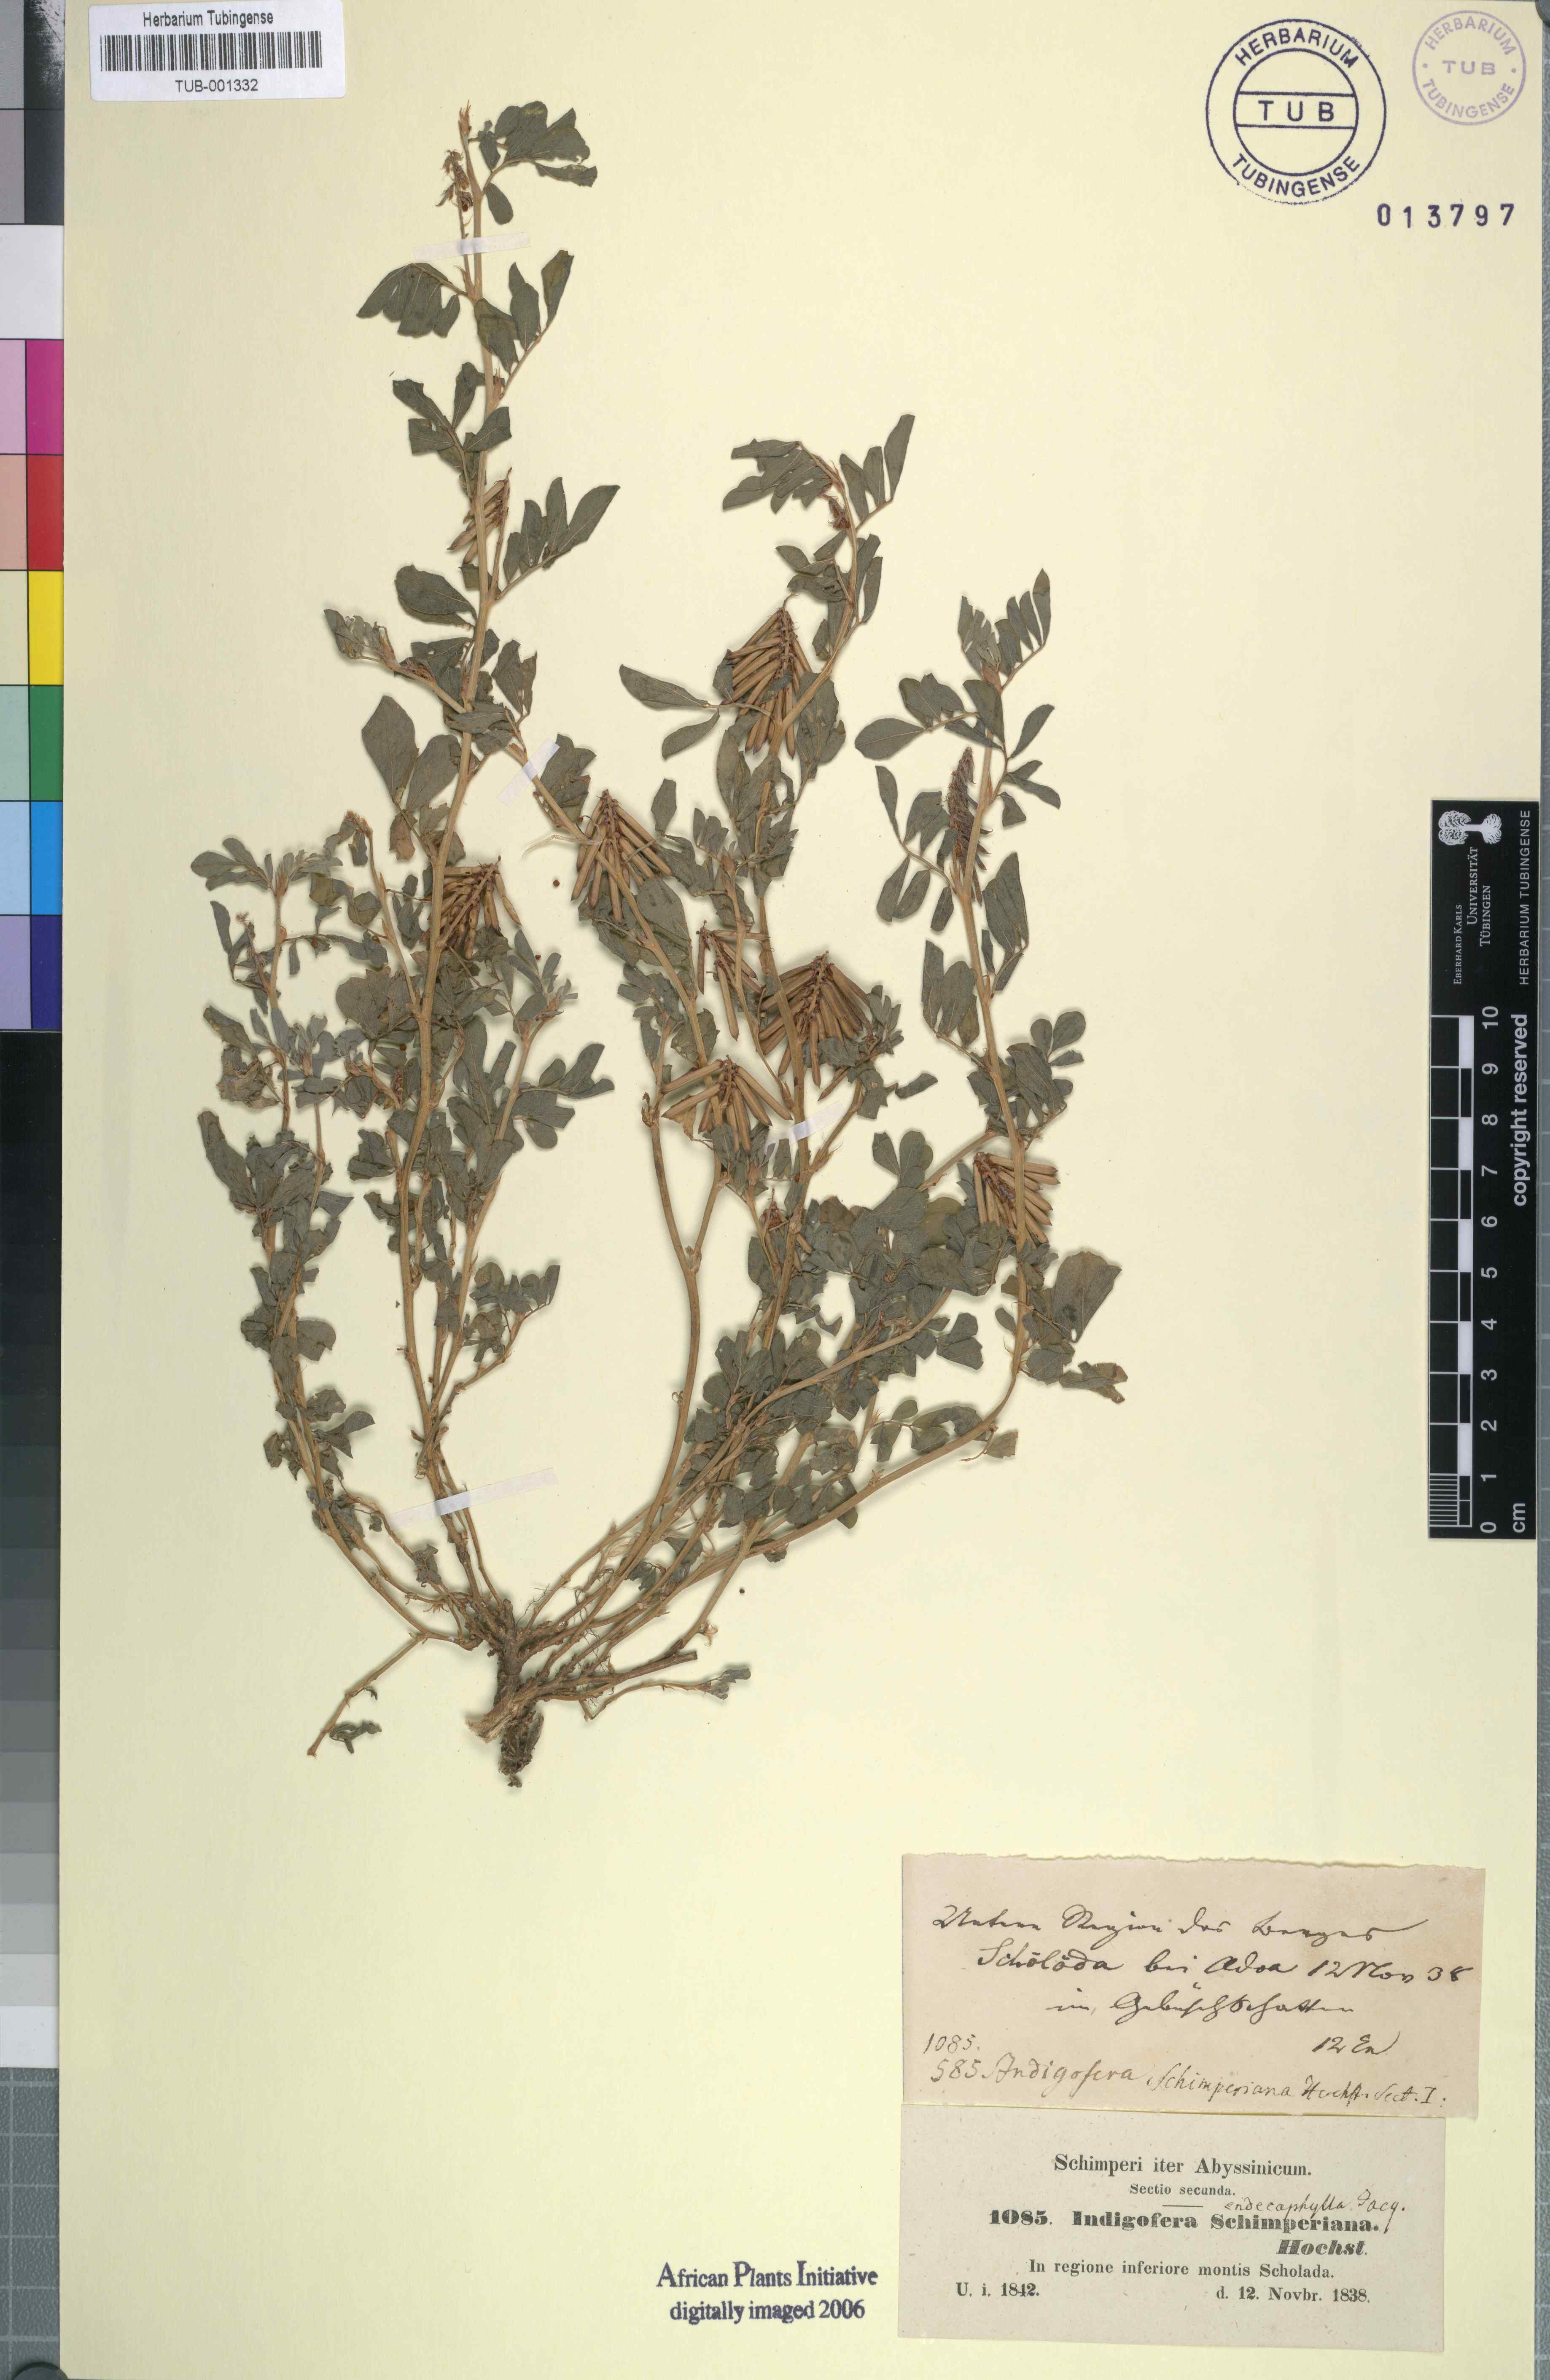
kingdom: Plantae
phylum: Tracheophyta
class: Magnoliopsida
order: Fabales
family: Fabaceae
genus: Indigofera
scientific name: Indigofera hendecaphylla
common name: Trailing indigo
